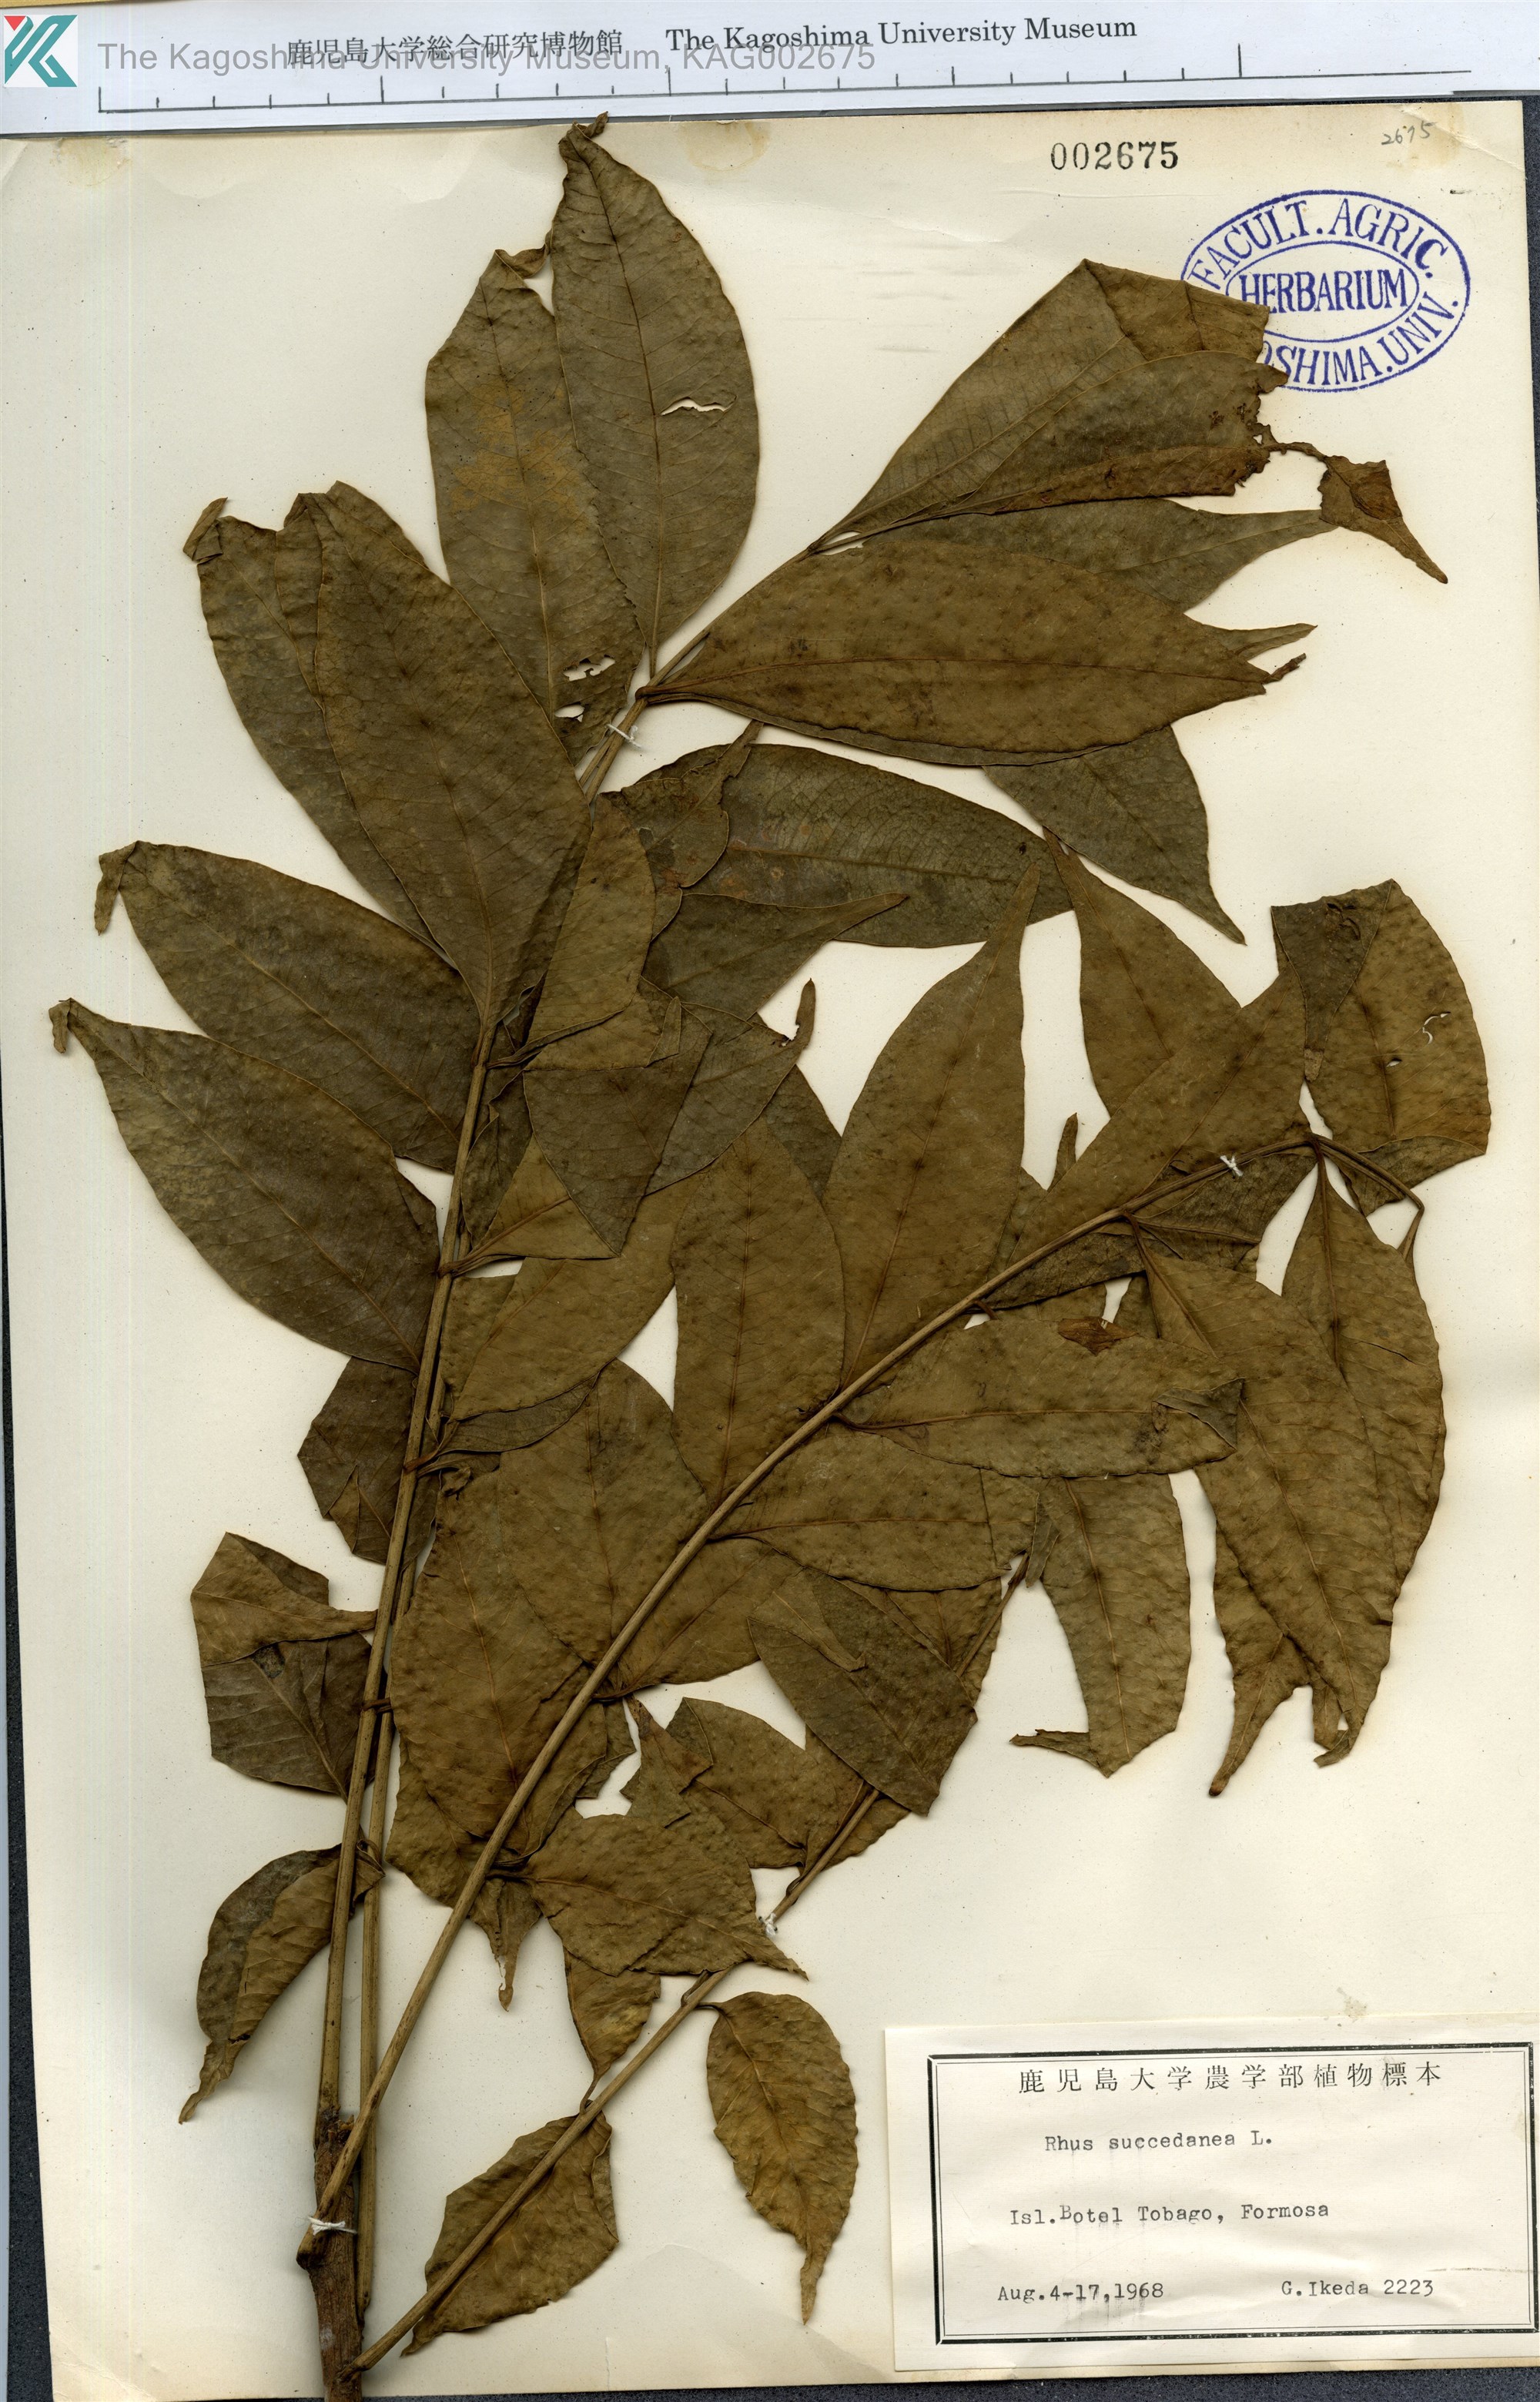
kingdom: Plantae
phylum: Tracheophyta
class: Magnoliopsida
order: Sapindales
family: Anacardiaceae
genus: Toxicodendron
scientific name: Toxicodendron succedaneum
